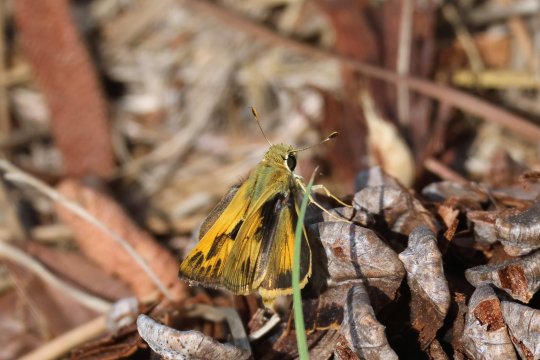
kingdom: Animalia
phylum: Arthropoda
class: Insecta
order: Lepidoptera
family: Hesperiidae
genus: Polites
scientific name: Polites vibex
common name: Whirlabout
